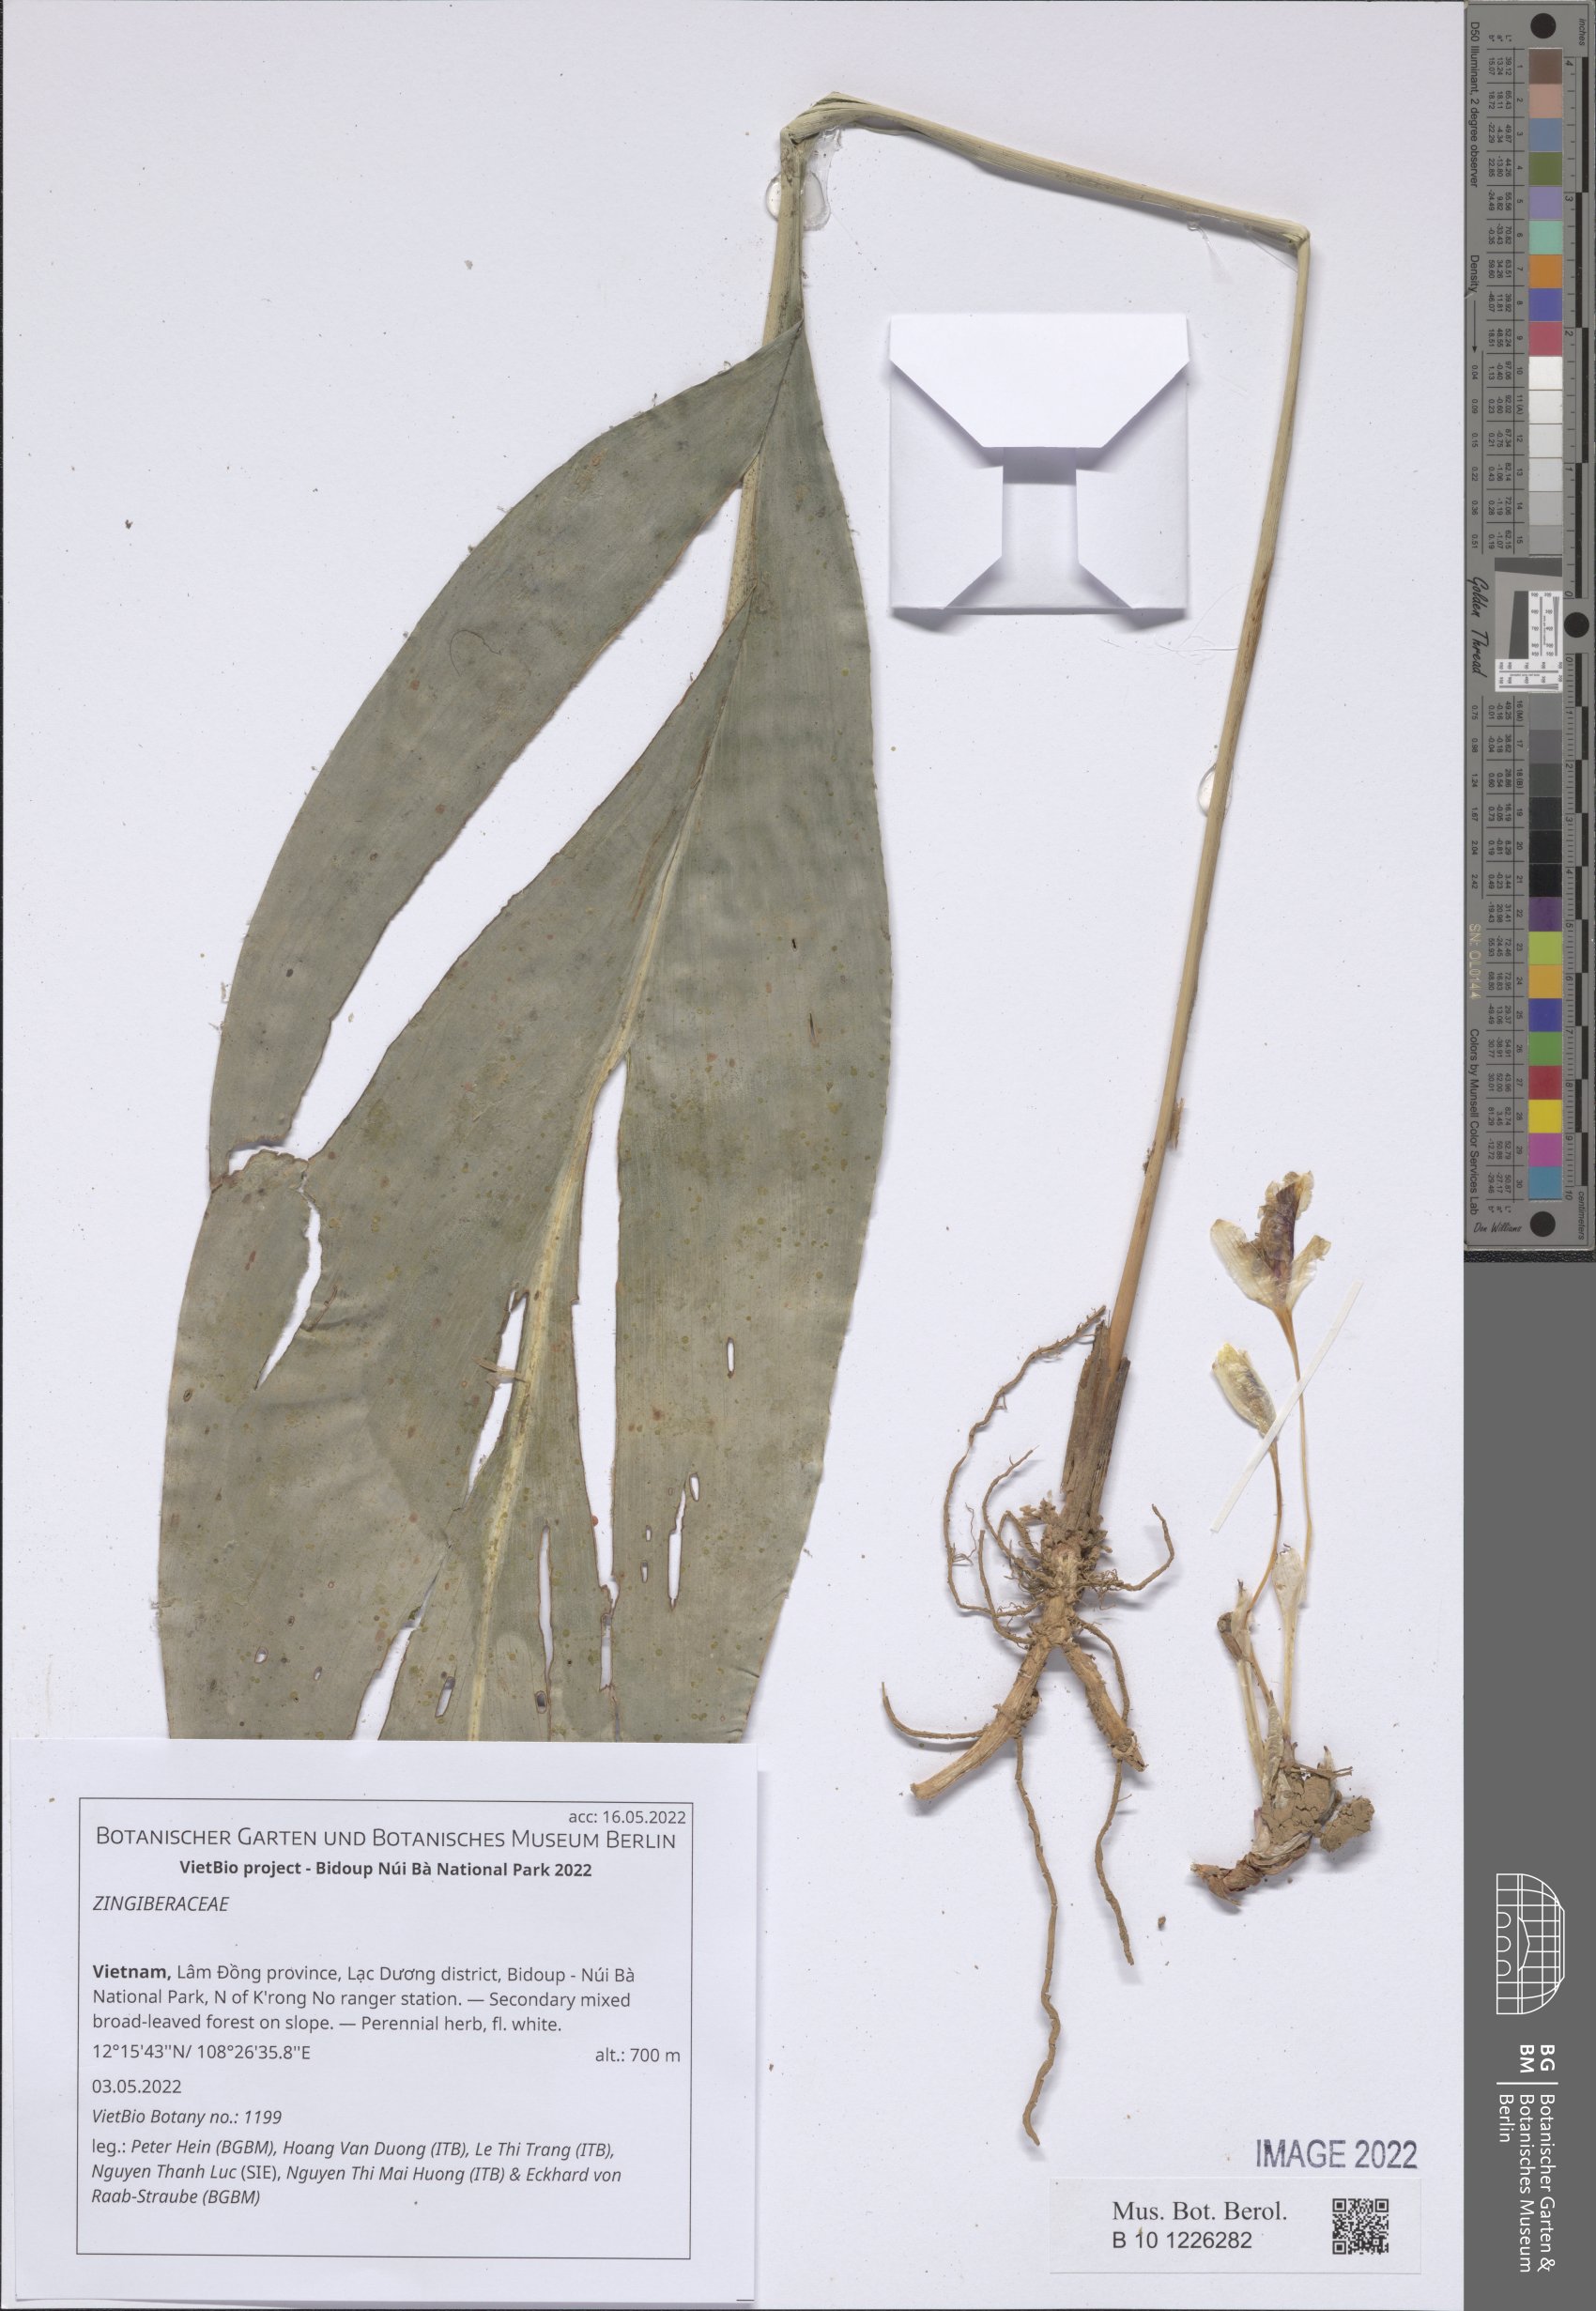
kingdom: Plantae
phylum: Tracheophyta
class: Liliopsida
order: Zingiberales
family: Zingiberaceae
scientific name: Zingiberaceae
